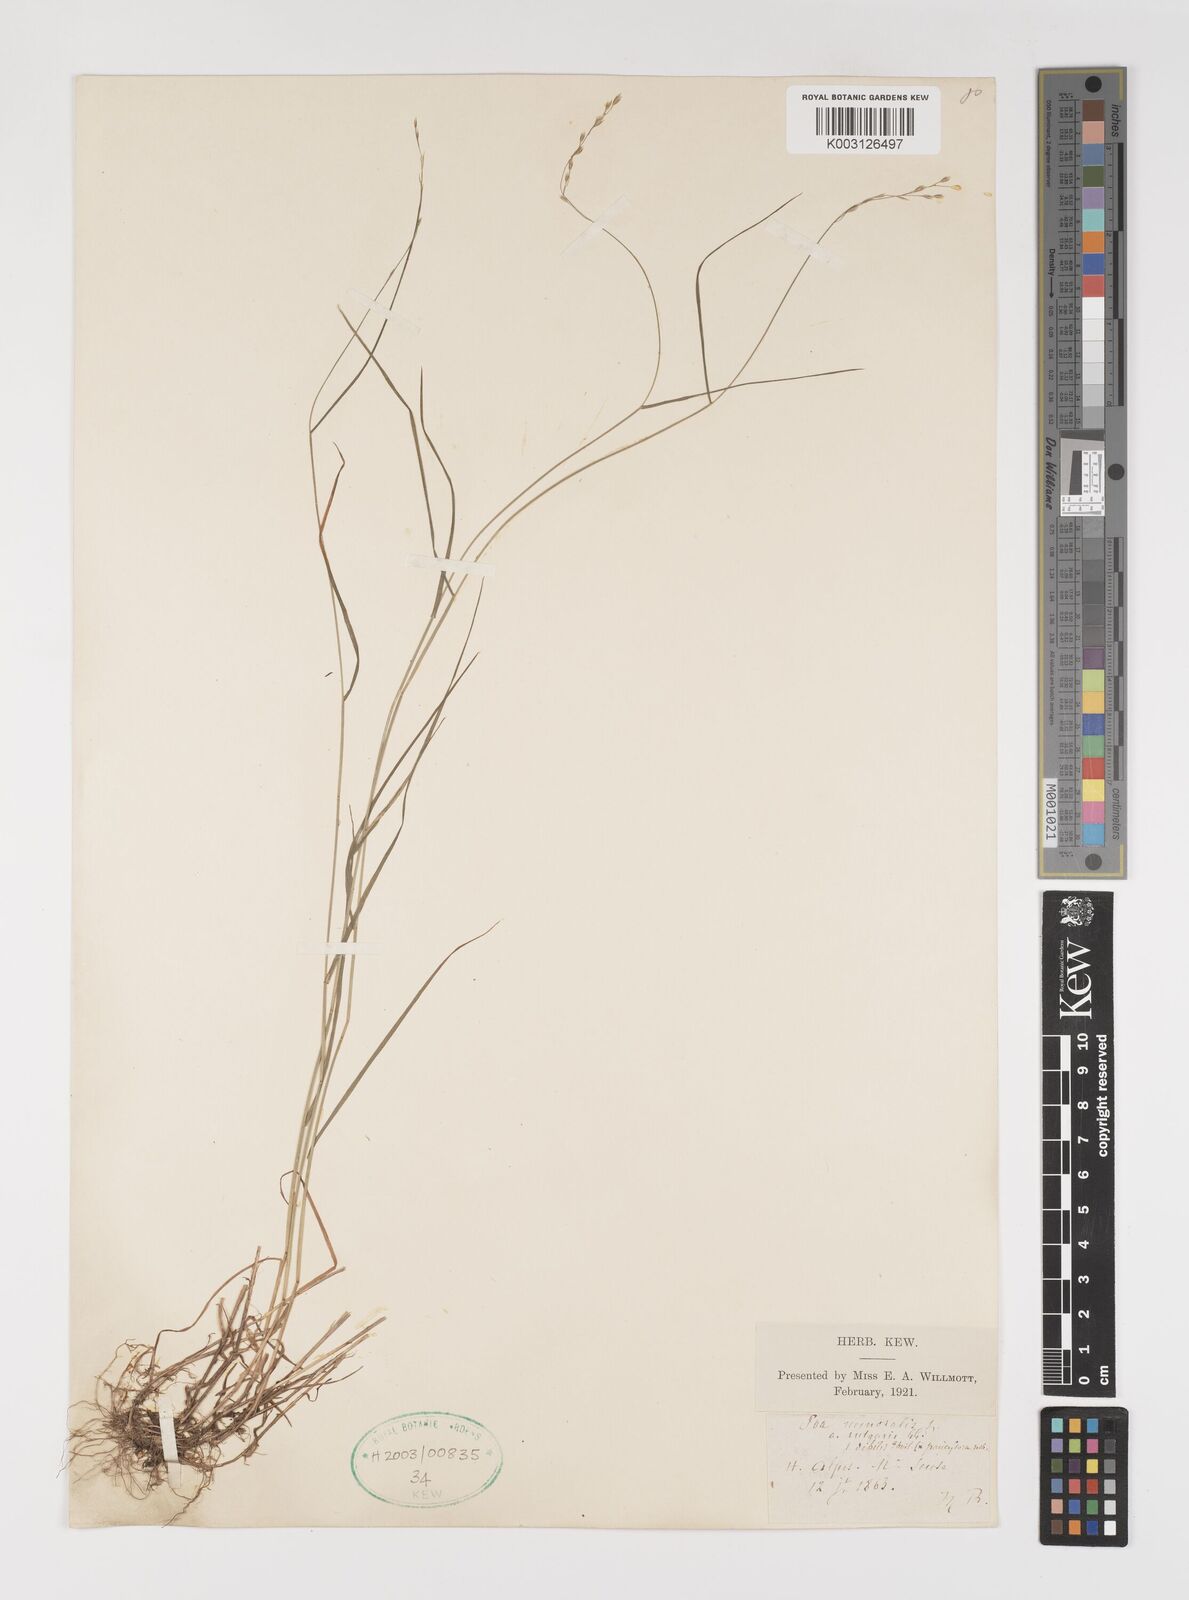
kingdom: Plantae
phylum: Tracheophyta
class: Liliopsida
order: Poales
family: Poaceae
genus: Poa
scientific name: Poa nemoralis
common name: Wood bluegrass
